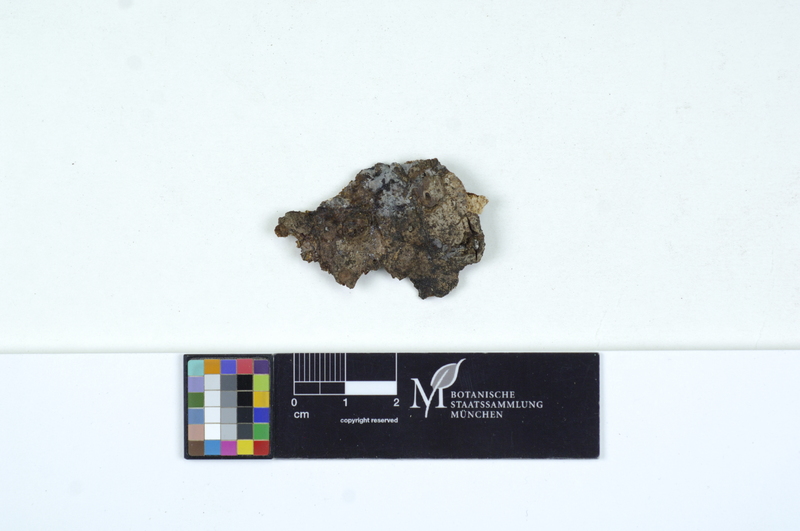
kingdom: Plantae
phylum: Tracheophyta
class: Pinopsida
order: Pinales
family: Pinaceae
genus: Abies
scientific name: Abies
